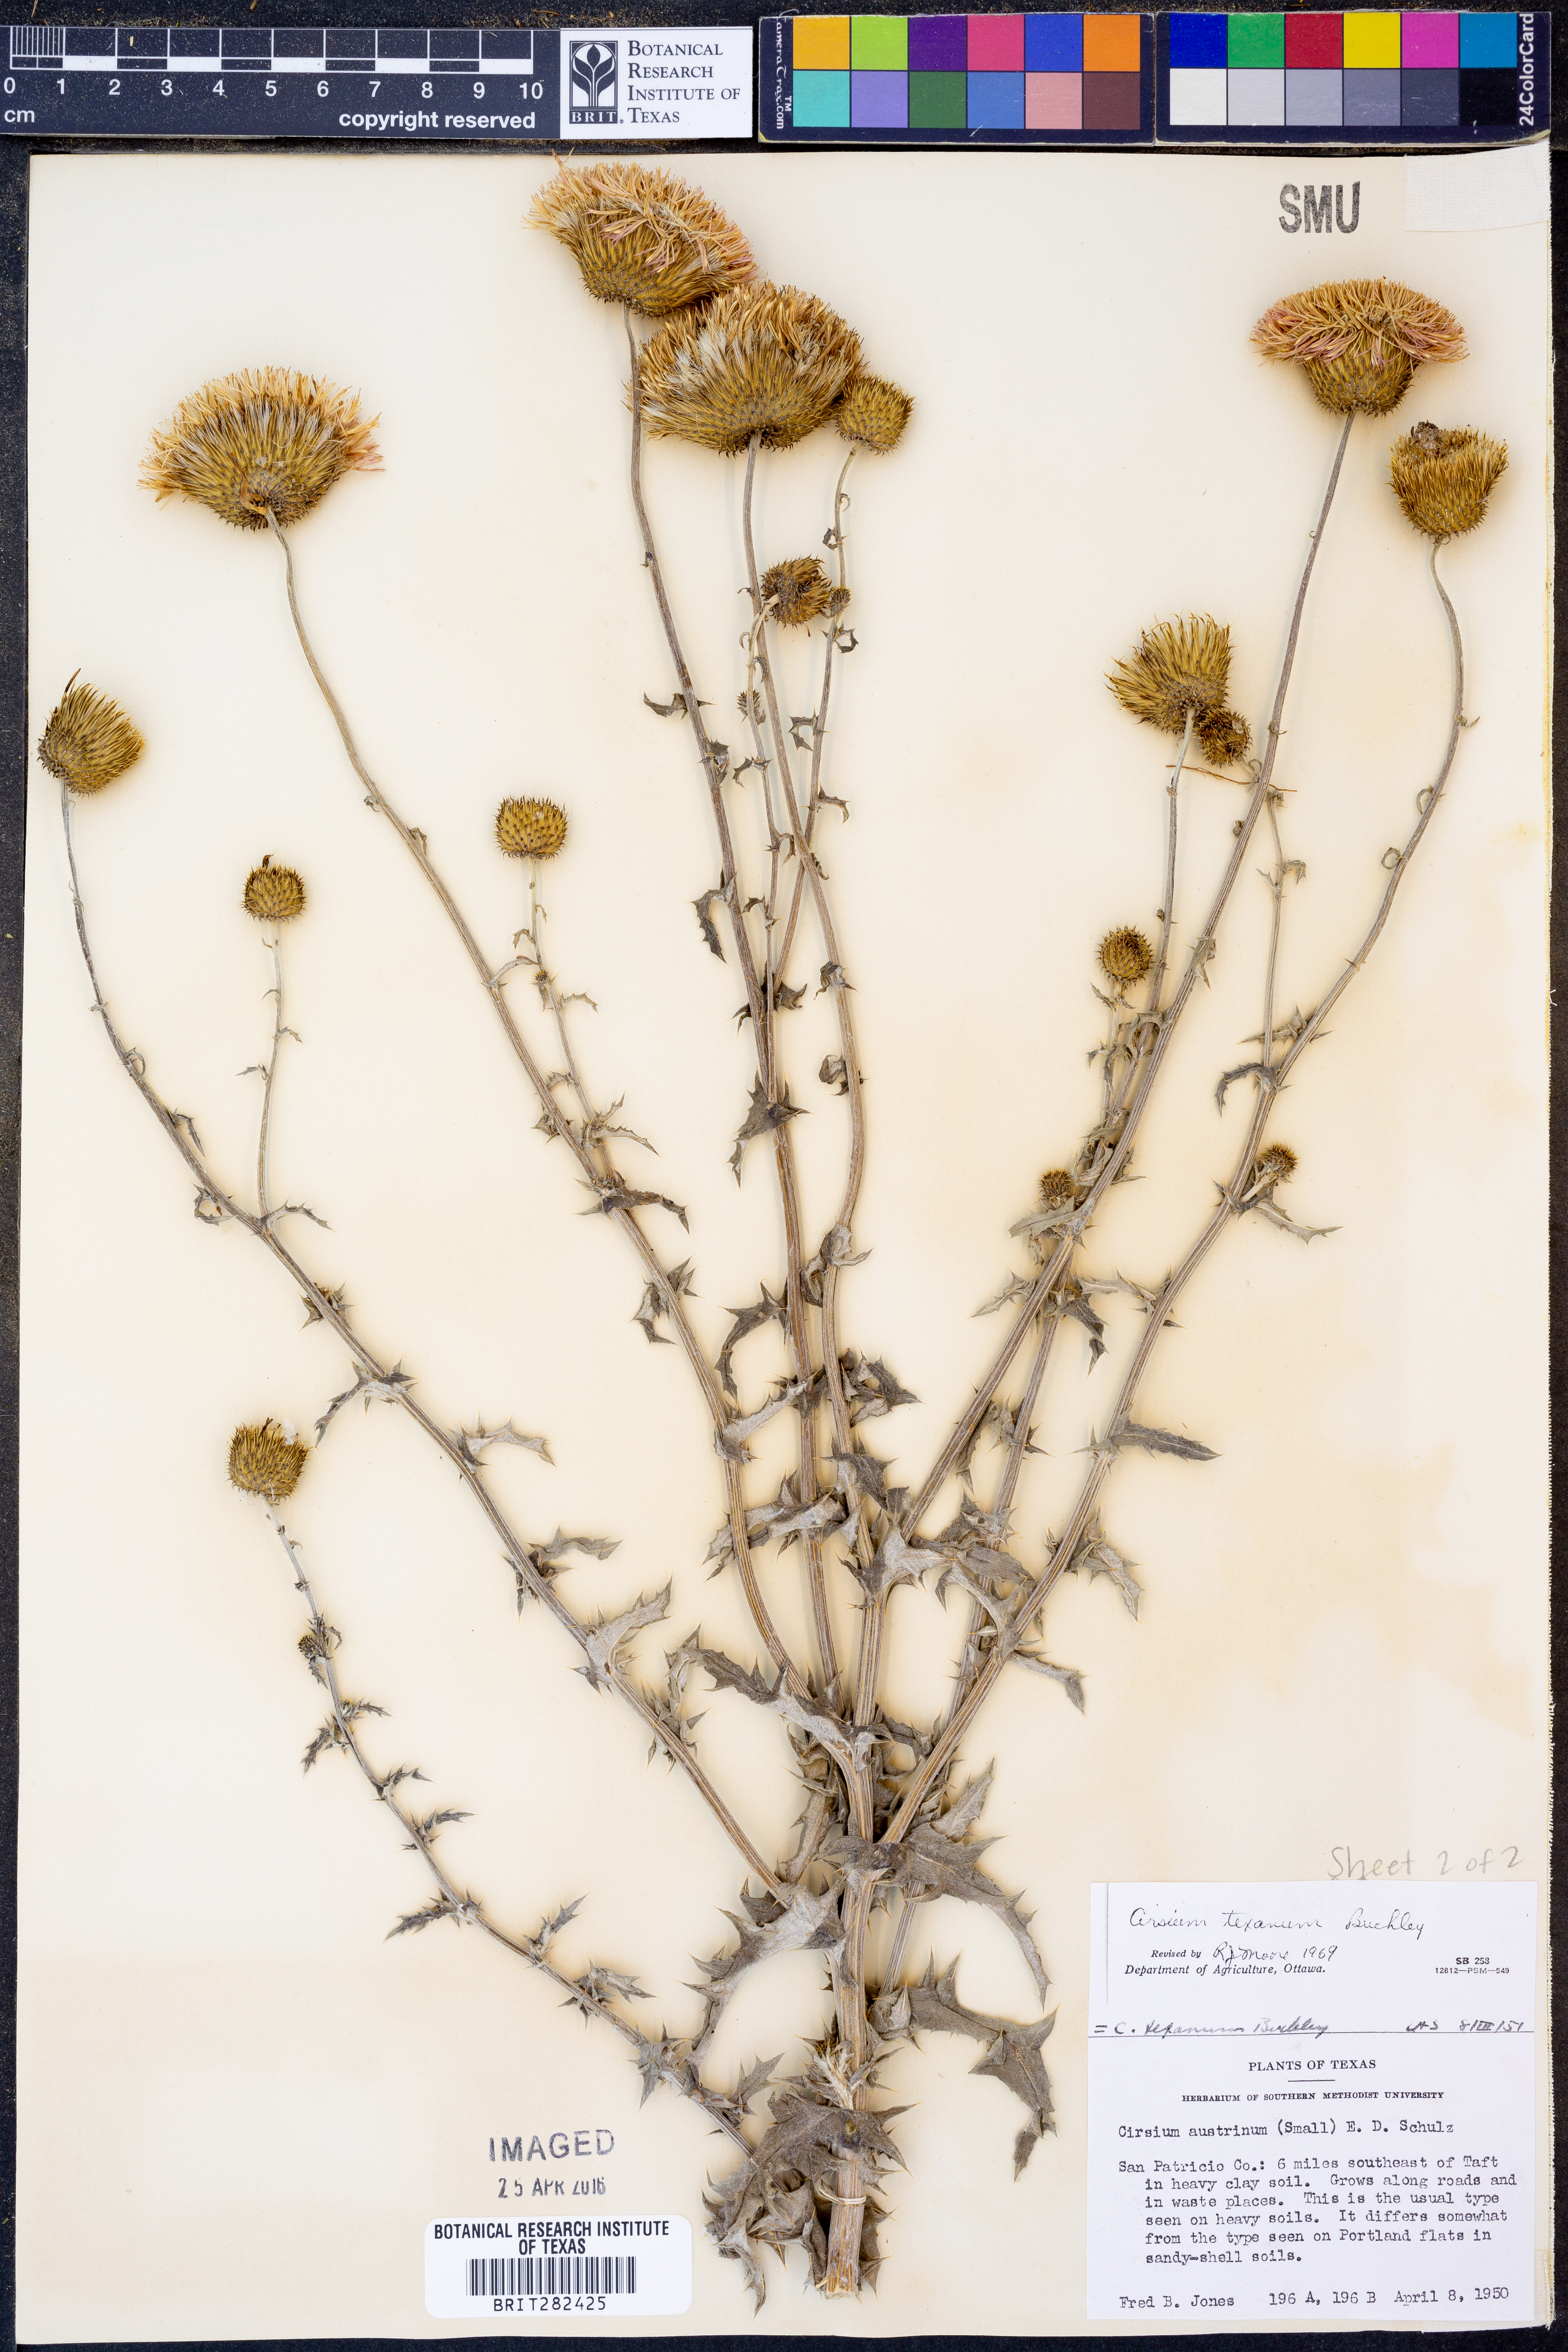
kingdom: Plantae
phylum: Tracheophyta
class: Magnoliopsida
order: Asterales
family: Asteraceae
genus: Cirsium
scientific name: Cirsium texanum
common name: Texas purple thistle
